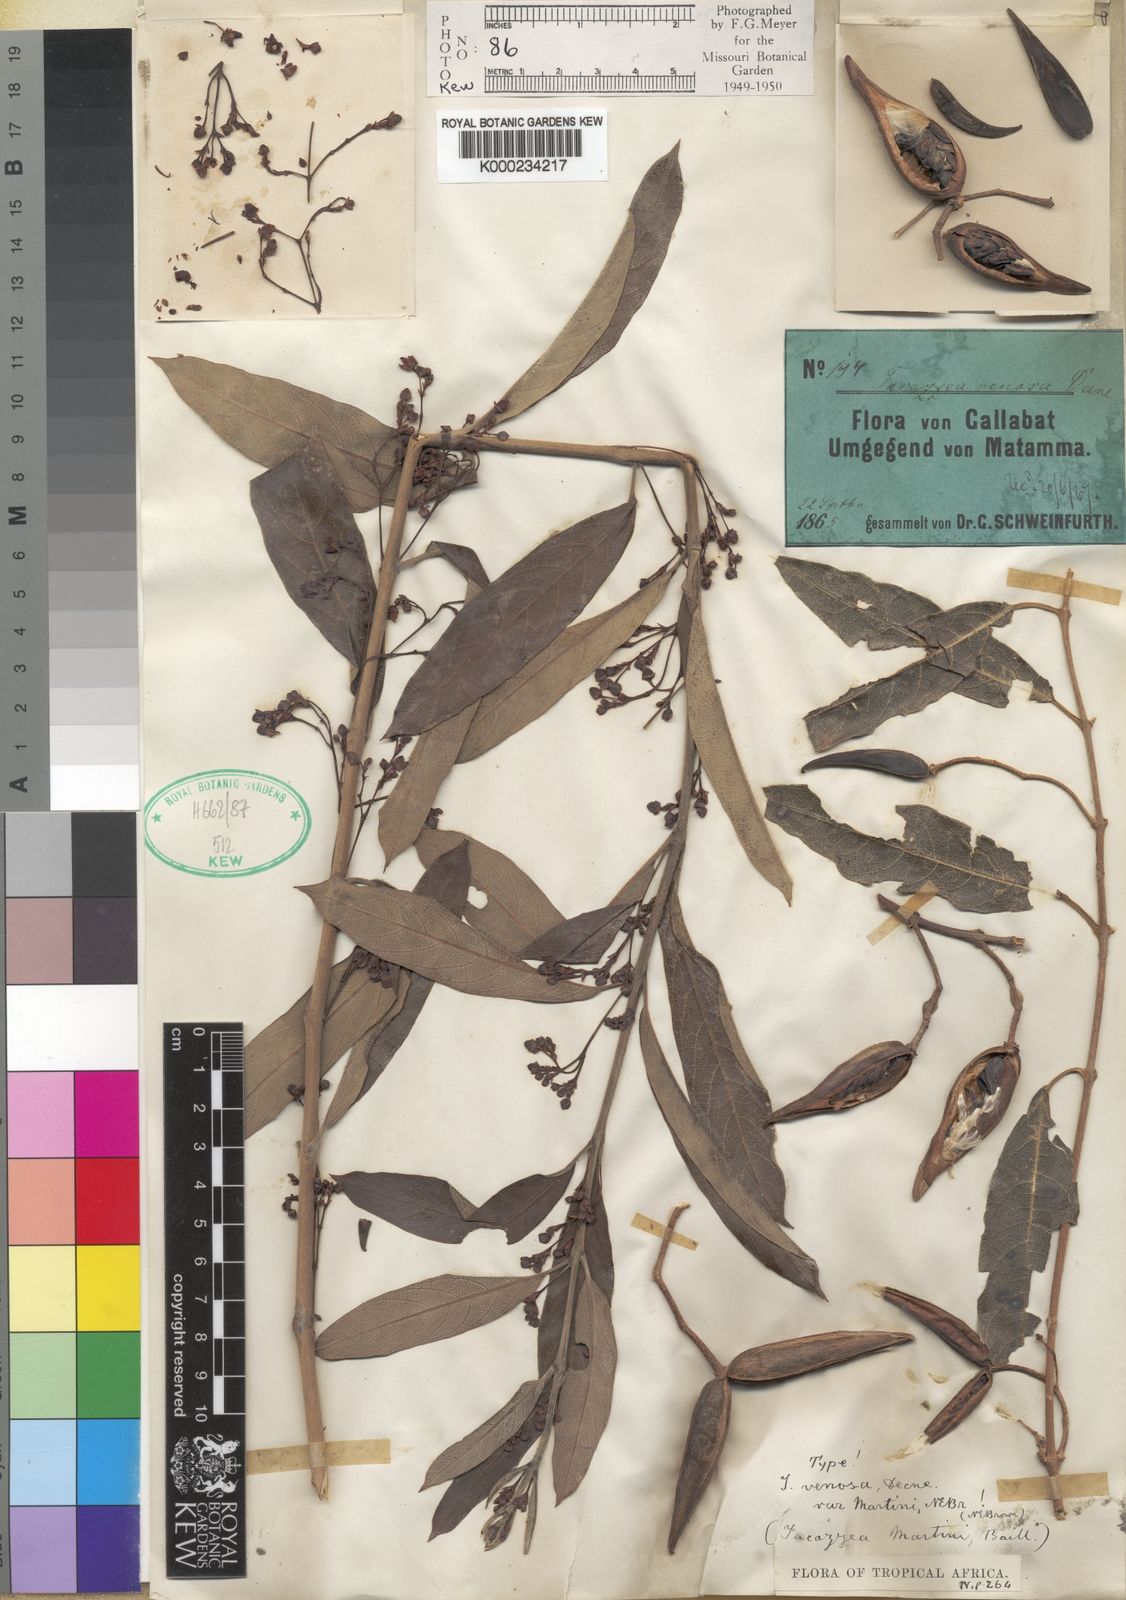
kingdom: Plantae
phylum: Tracheophyta
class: Magnoliopsida
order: Gentianales
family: Apocynaceae
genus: Tacazzea
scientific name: Tacazzea
